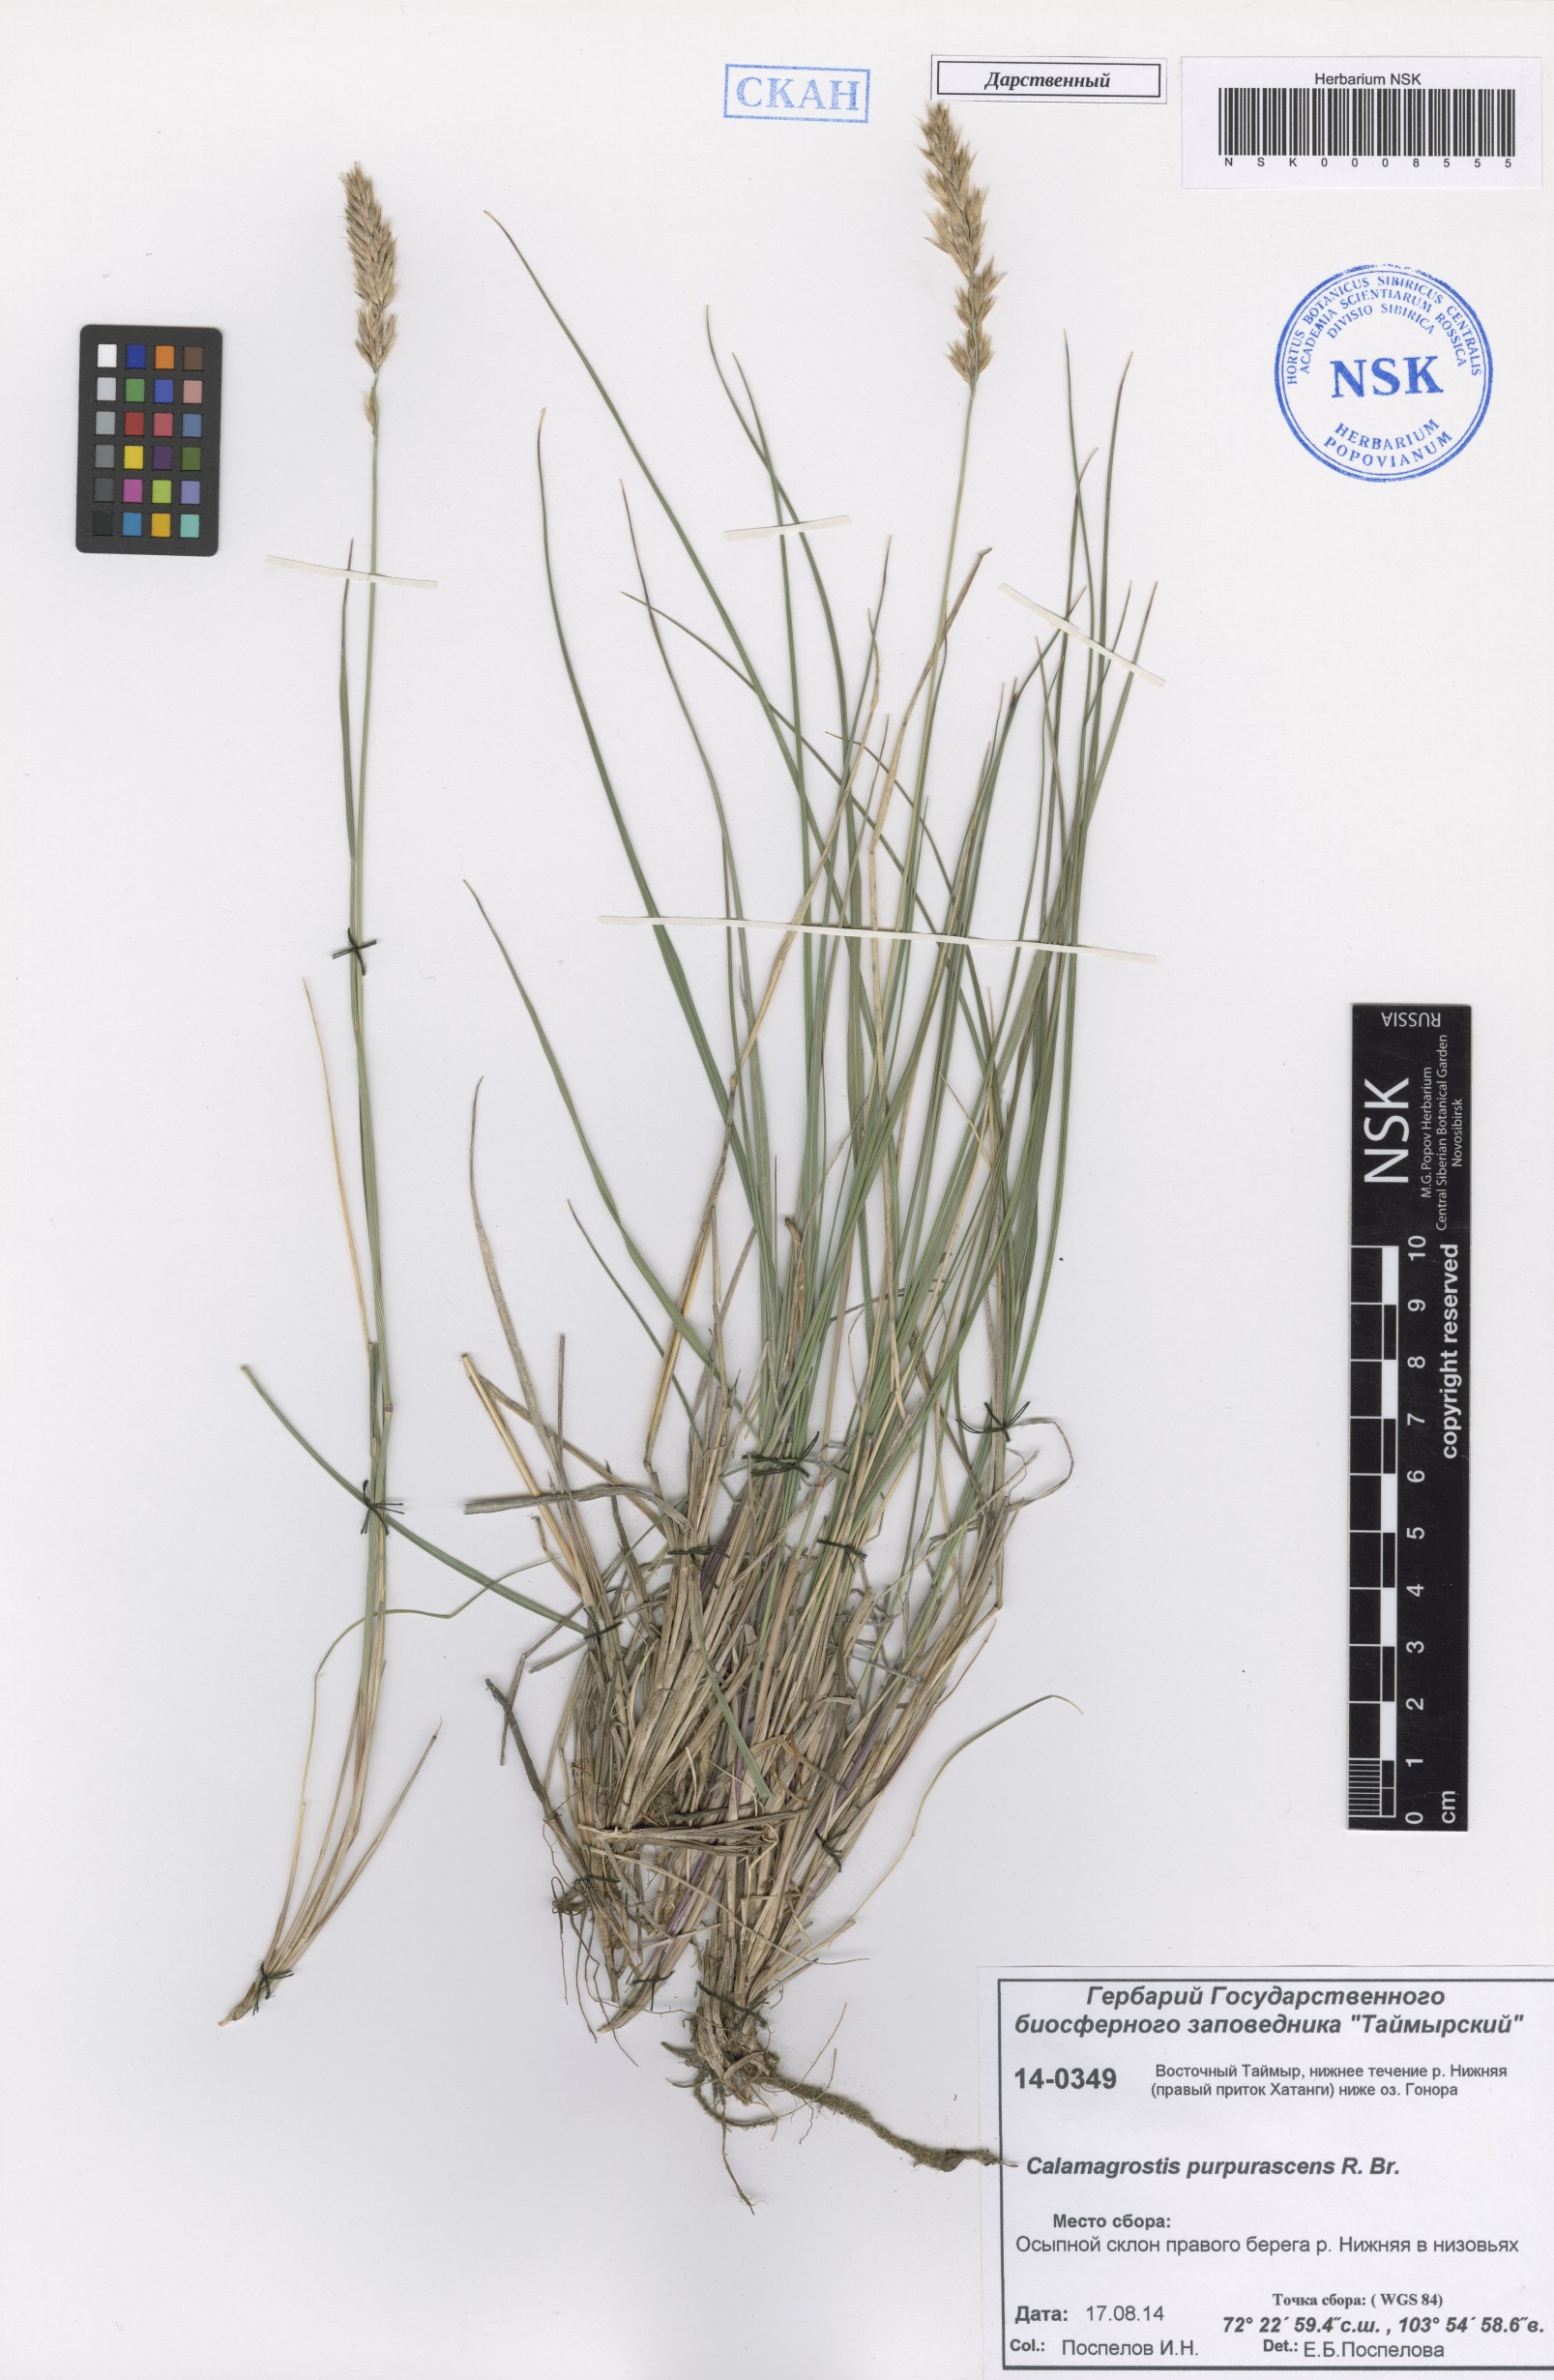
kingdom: Plantae
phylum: Tracheophyta
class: Liliopsida
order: Poales
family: Poaceae
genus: Calamagrostis
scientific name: Calamagrostis purpurascens
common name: Purple reedgrass
